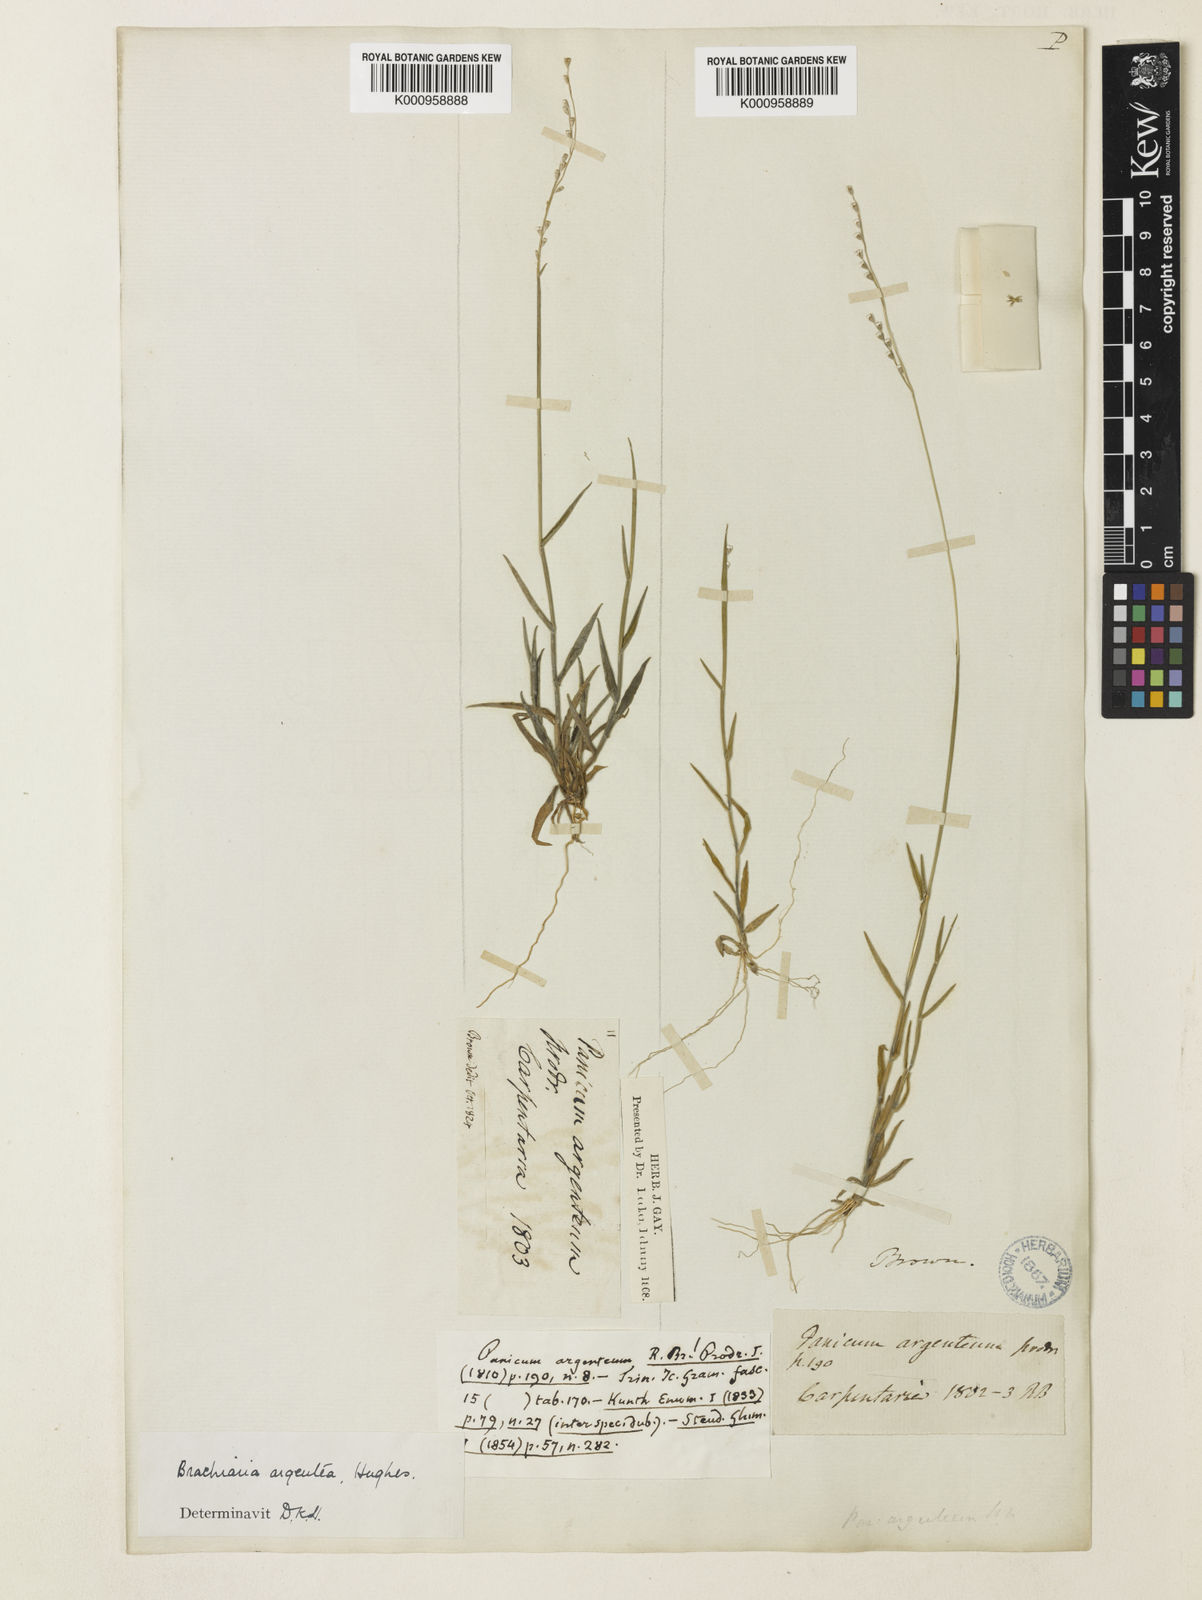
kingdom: Plantae
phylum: Tracheophyta
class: Liliopsida
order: Poales
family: Poaceae
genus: Urochloa
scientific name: Urochloa argentea
